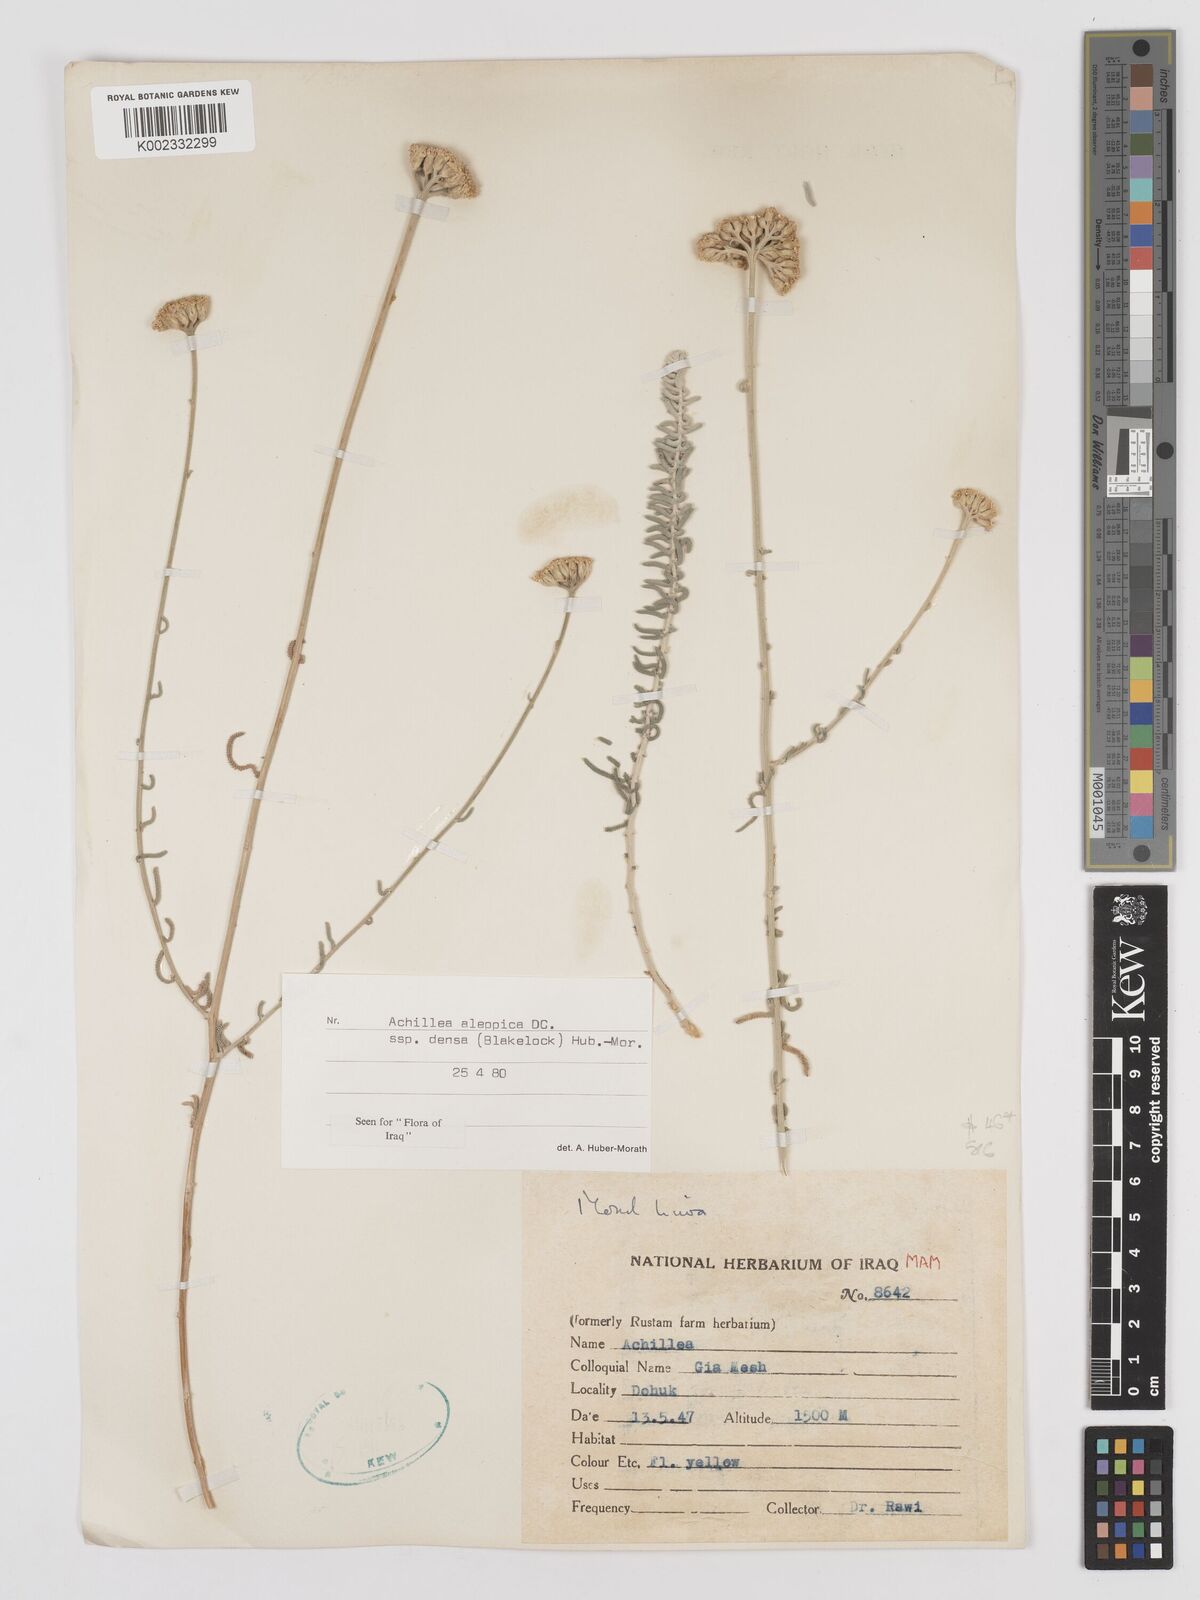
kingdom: Plantae
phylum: Tracheophyta
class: Magnoliopsida
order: Asterales
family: Asteraceae
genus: Achillea
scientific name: Achillea aleppica
